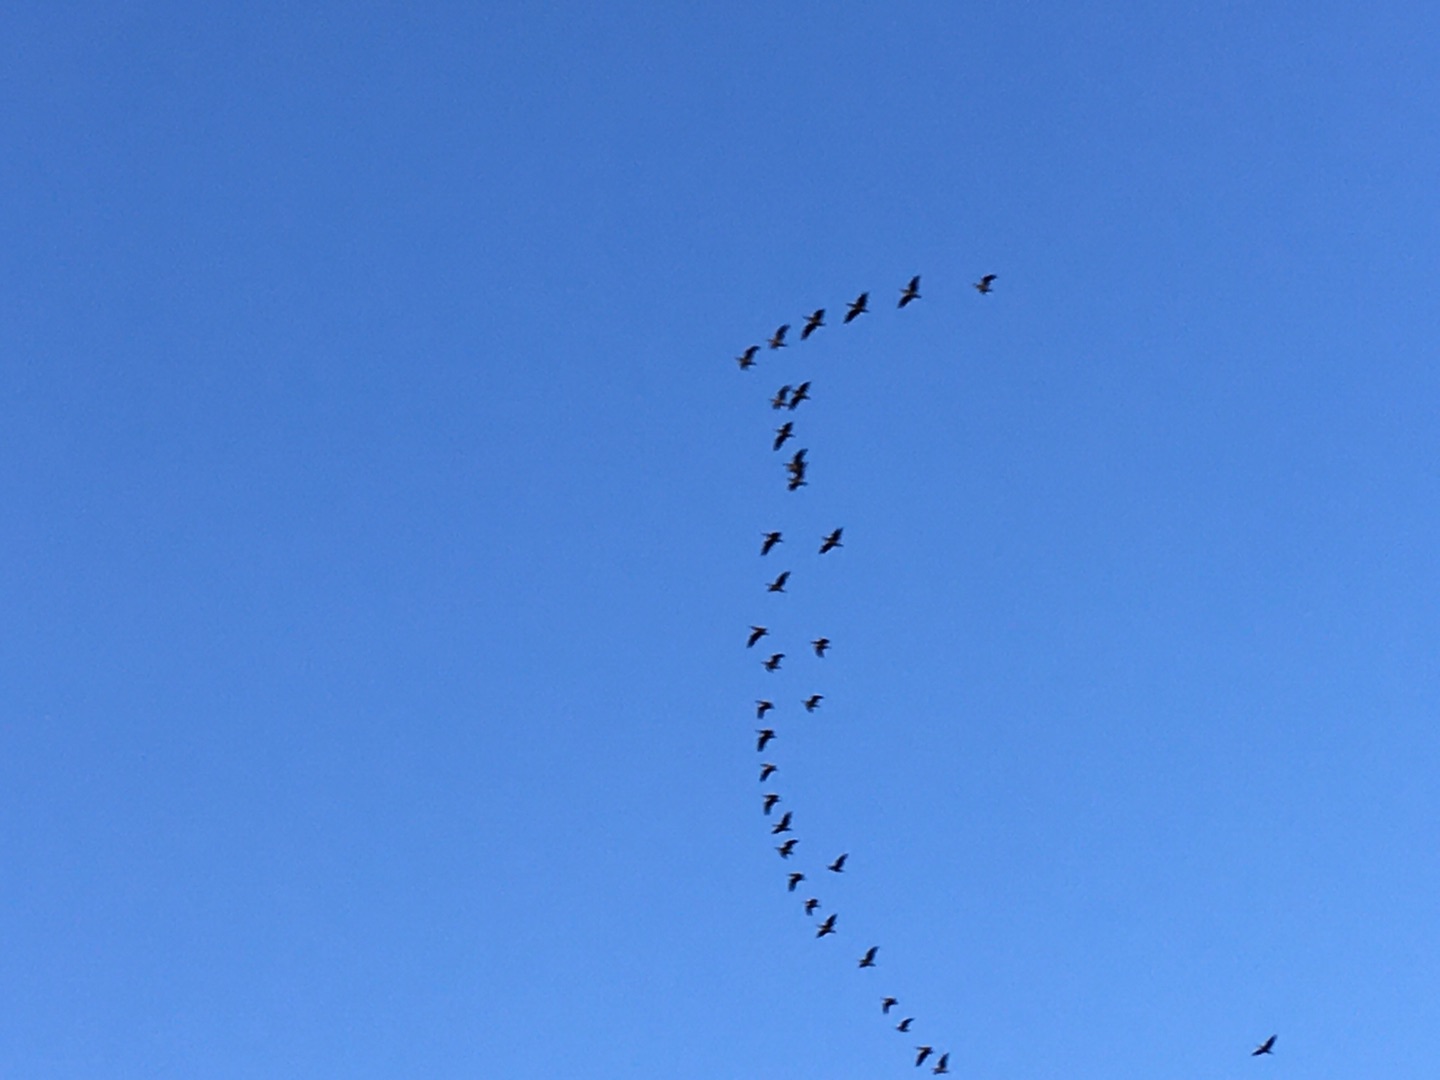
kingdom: Animalia
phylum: Chordata
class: Aves
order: Anseriformes
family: Anatidae
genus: Branta
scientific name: Branta leucopsis
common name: Bramgås
